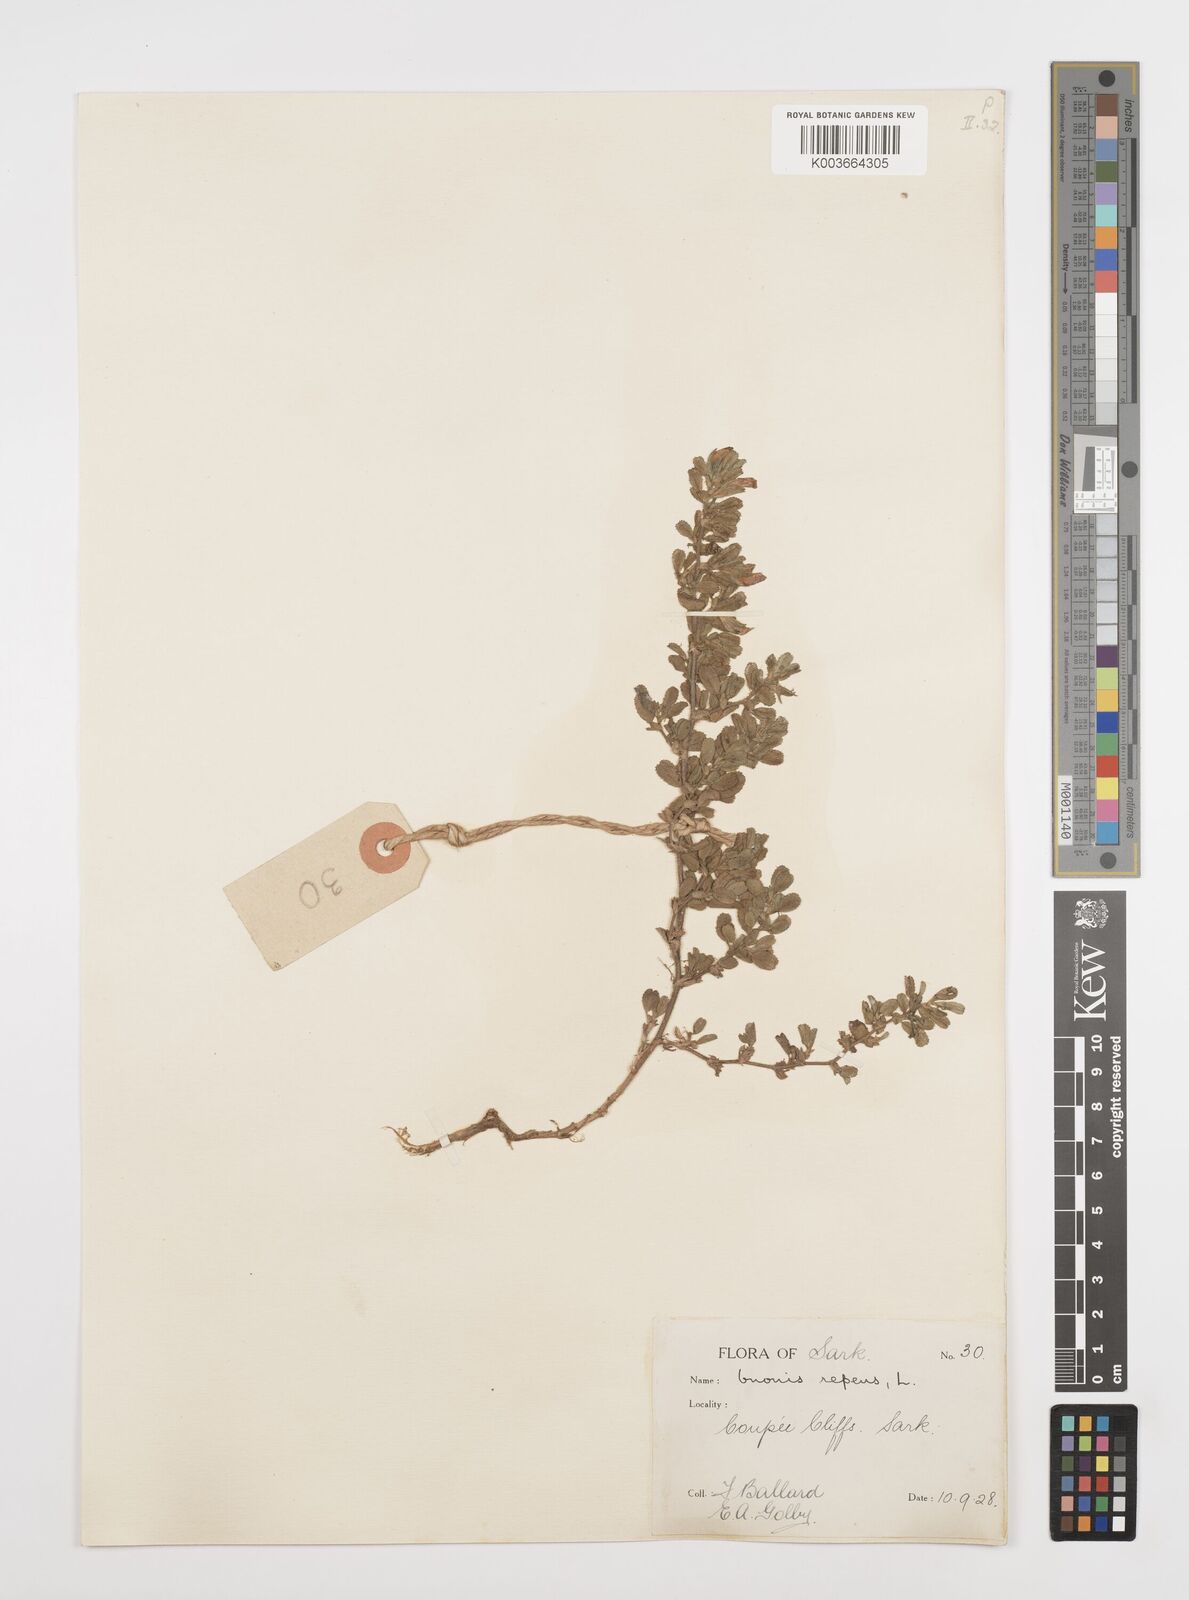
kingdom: Plantae
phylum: Tracheophyta
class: Magnoliopsida
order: Fabales
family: Fabaceae
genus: Ononis
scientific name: Ononis spinosa
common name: Spiny restharrow
